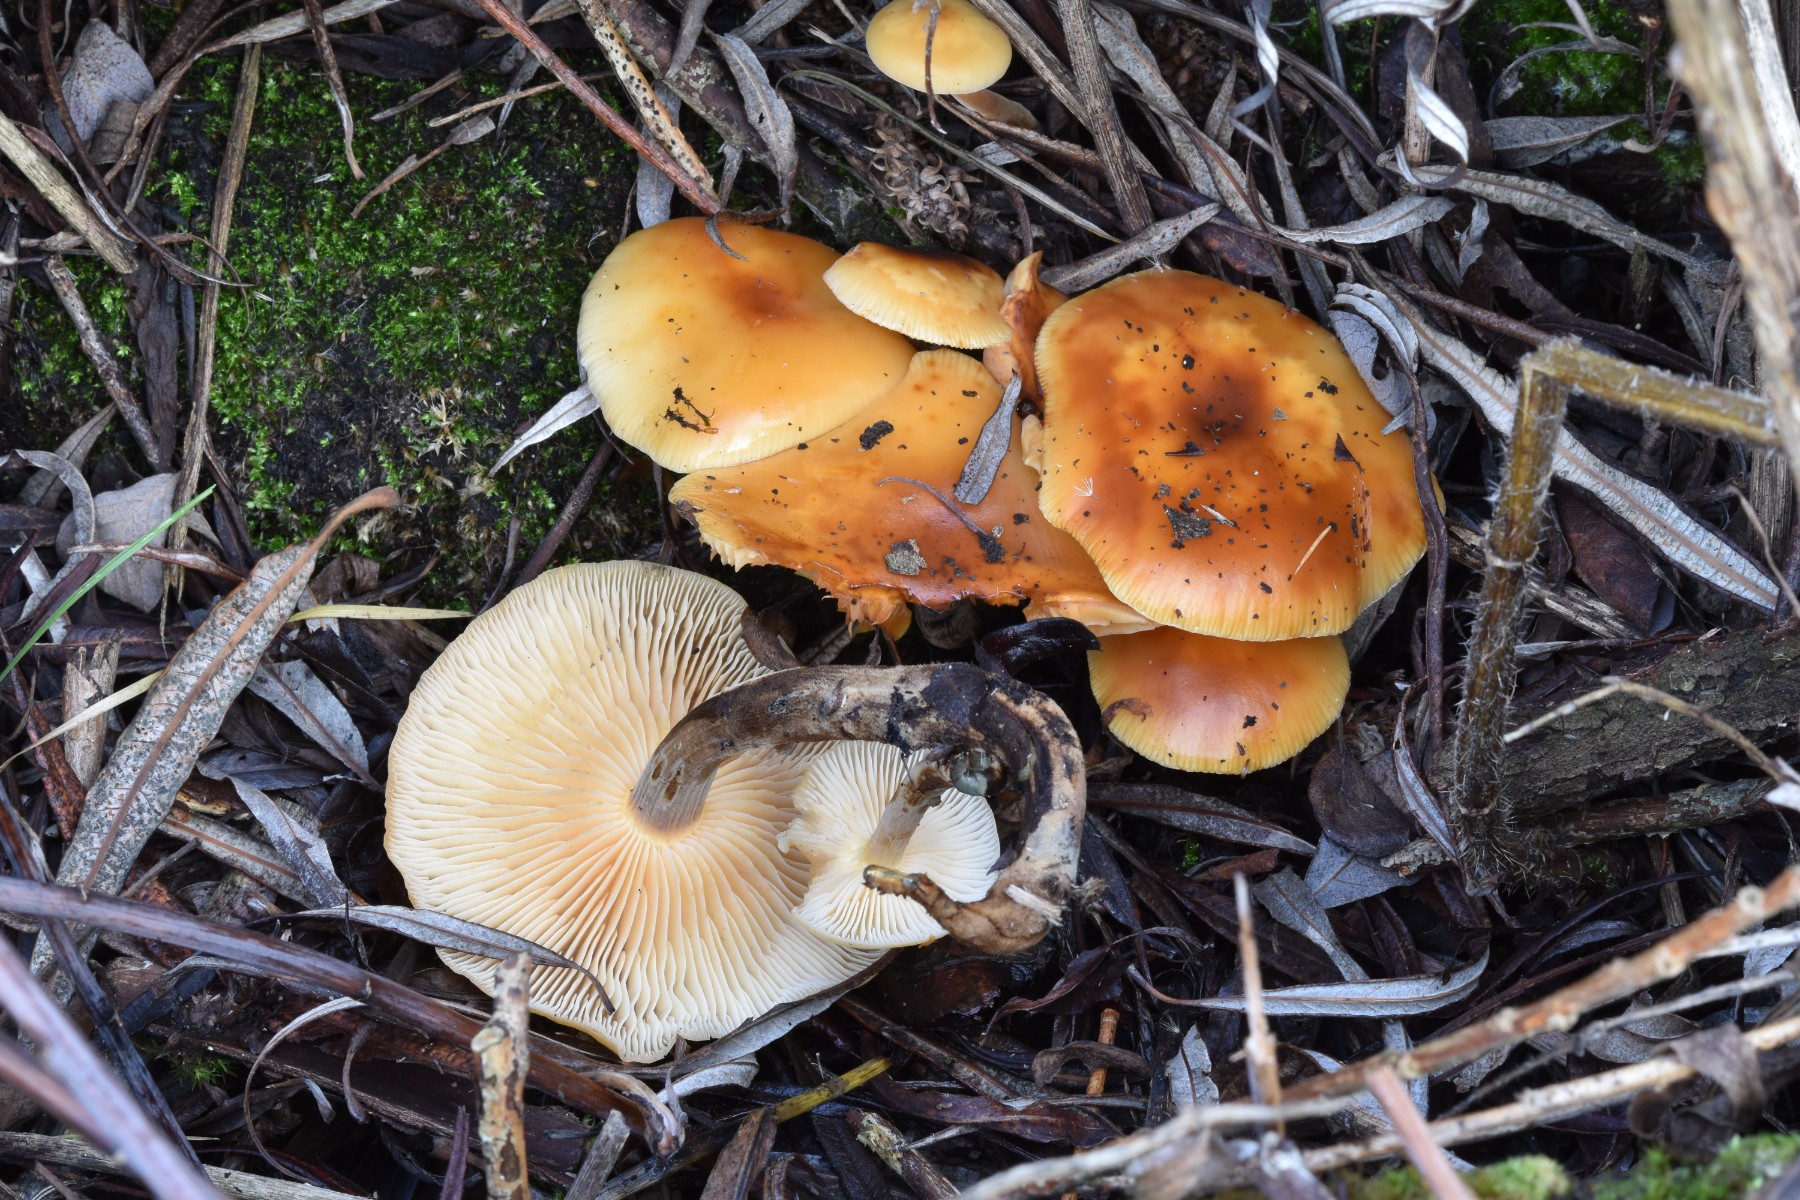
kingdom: Fungi
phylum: Basidiomycota
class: Agaricomycetes
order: Agaricales
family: Physalacriaceae
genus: Flammulina
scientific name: Flammulina velutipes
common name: gul fløjlsfod
